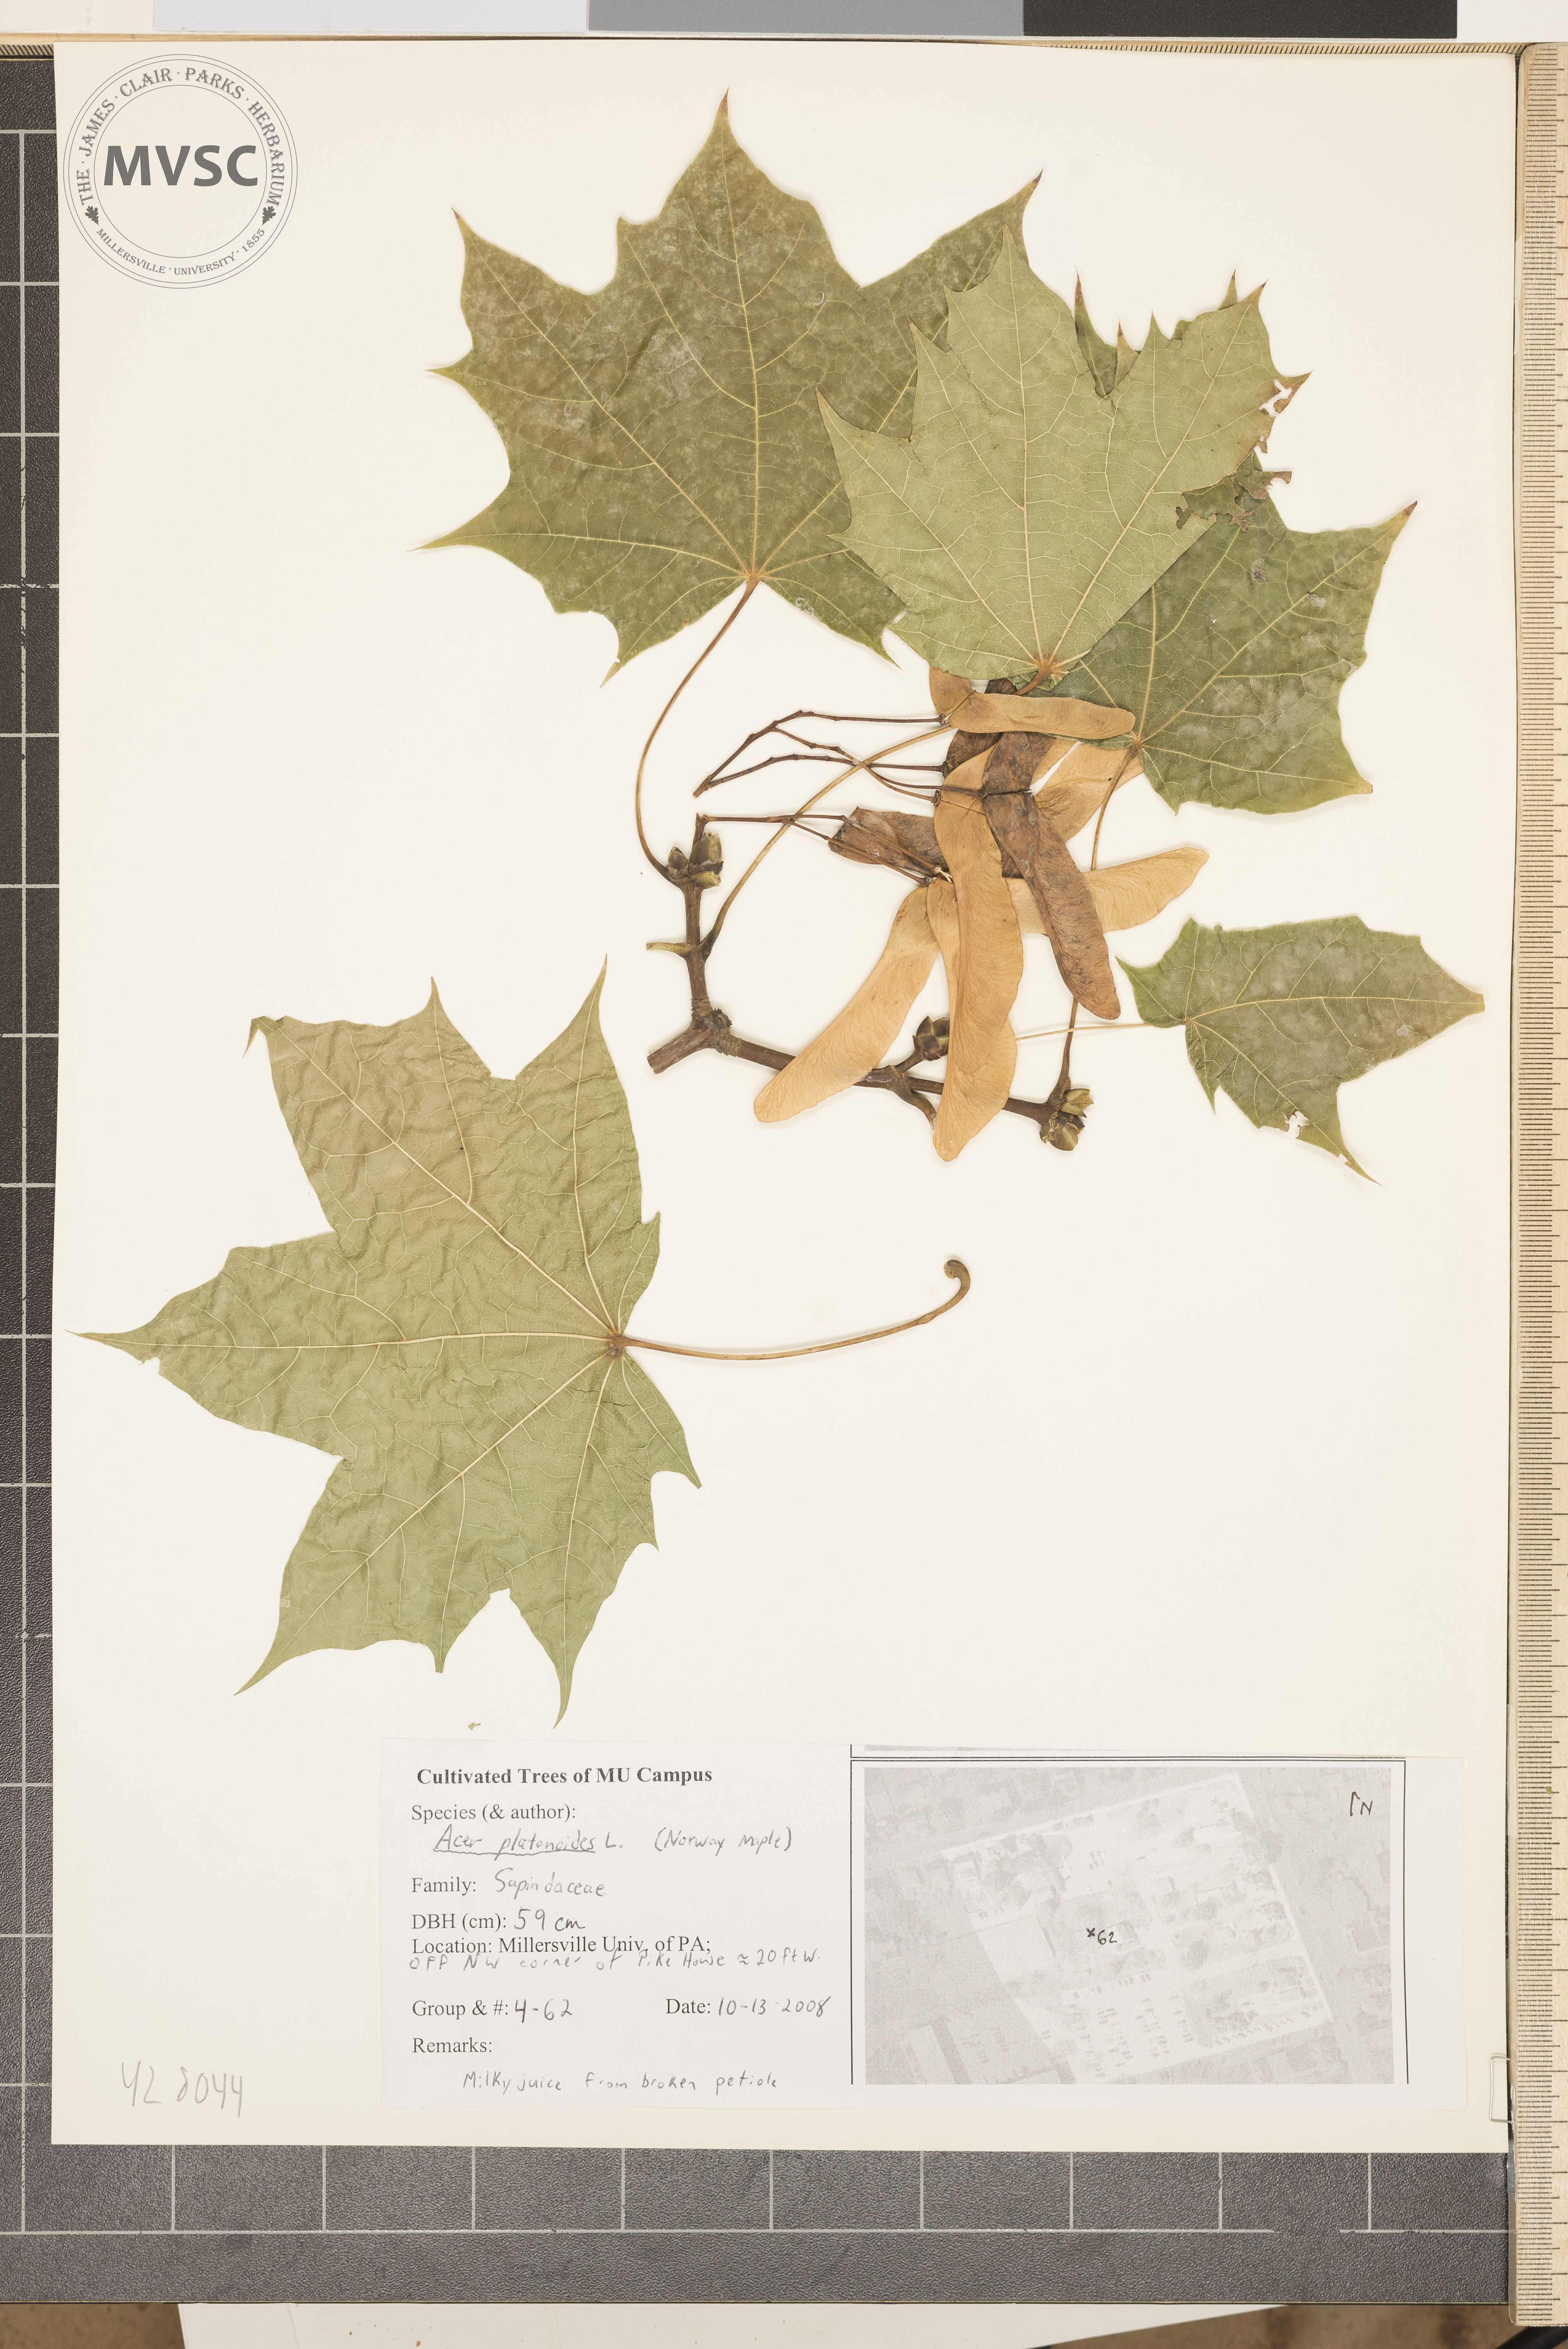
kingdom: Plantae
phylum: Tracheophyta
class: Magnoliopsida
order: Sapindales
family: Sapindaceae
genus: Acer
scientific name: Acer platanoides
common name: Norway Maple
